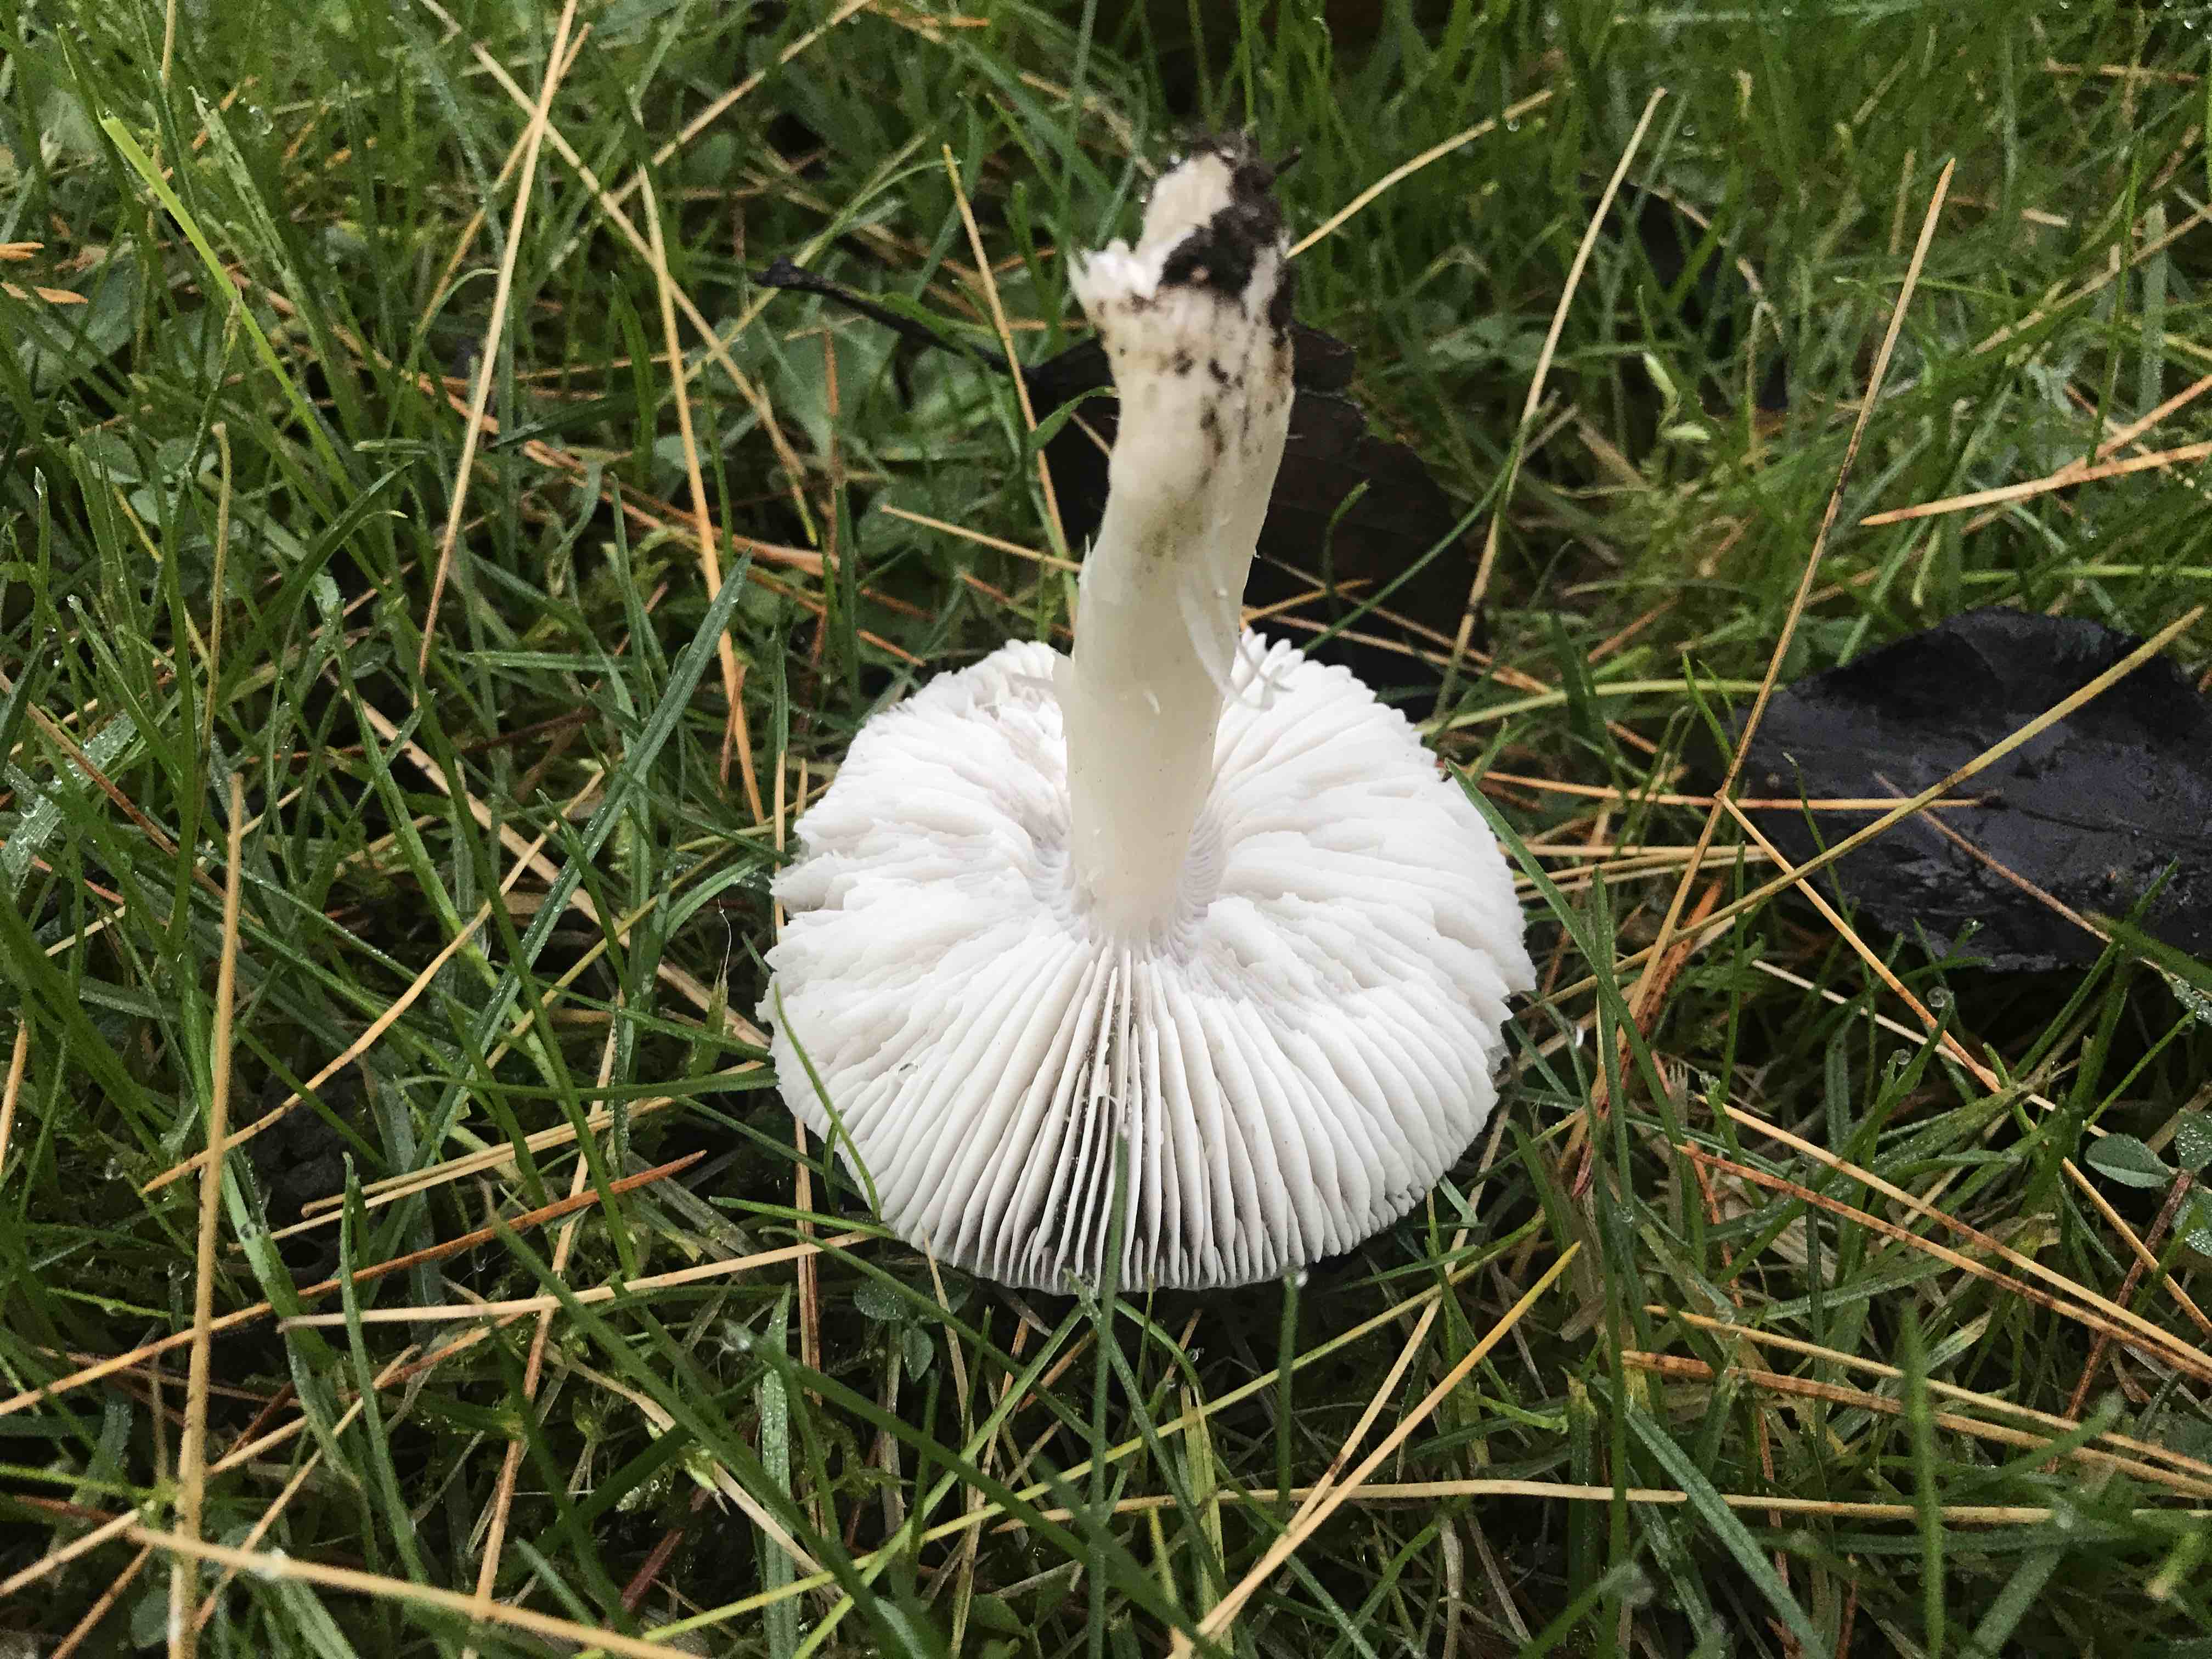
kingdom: Fungi
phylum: Basidiomycota
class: Agaricomycetes
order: Agaricales
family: Tricholomataceae
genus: Tricholoma
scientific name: Tricholoma terreum
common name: jordfarvet ridderhat
